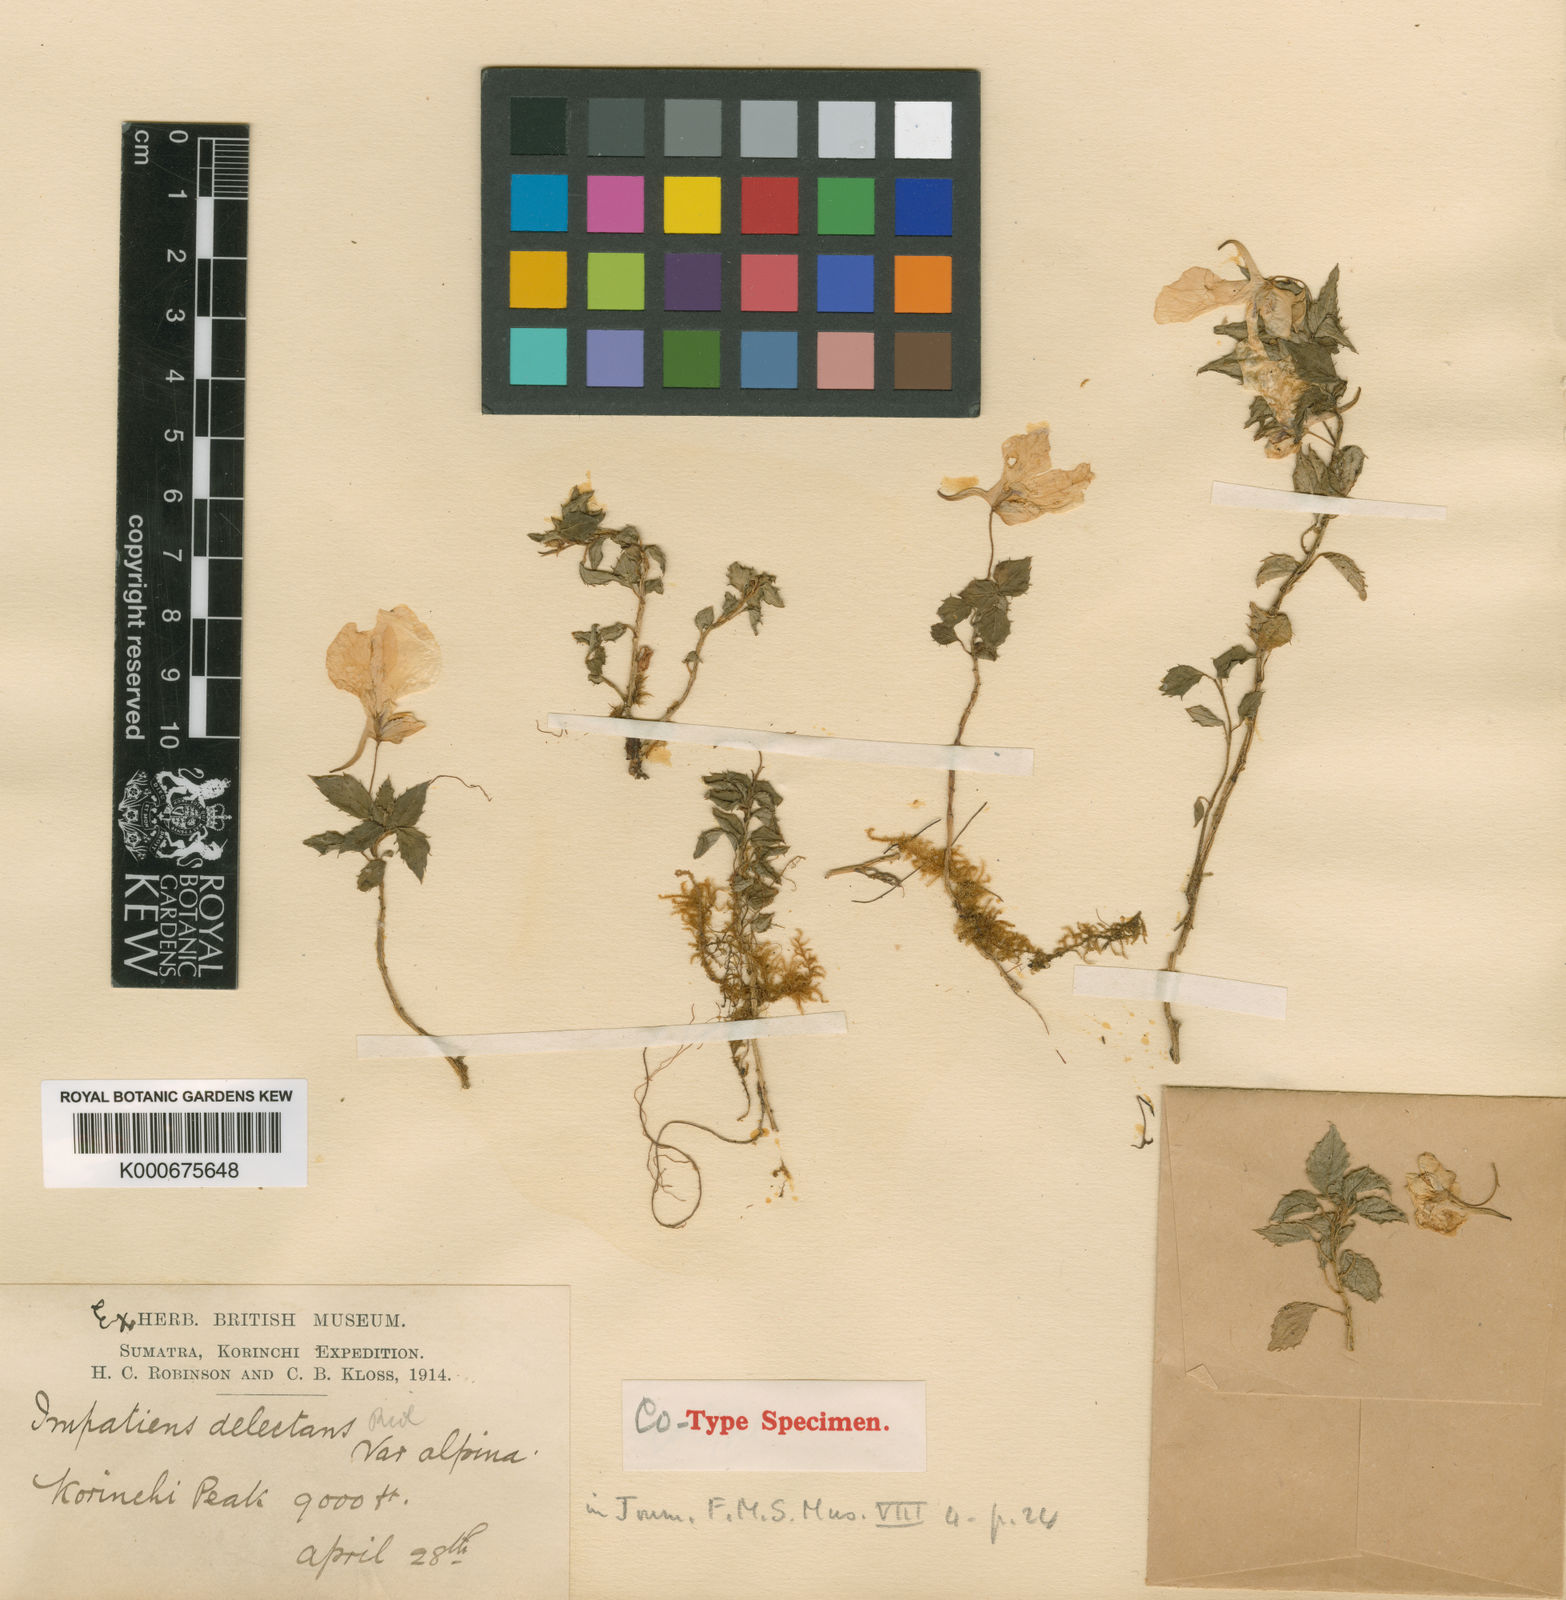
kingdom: Plantae
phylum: Tracheophyta
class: Magnoliopsida
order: Ericales
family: Balsaminaceae
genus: Impatiens
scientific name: Impatiens delectans
